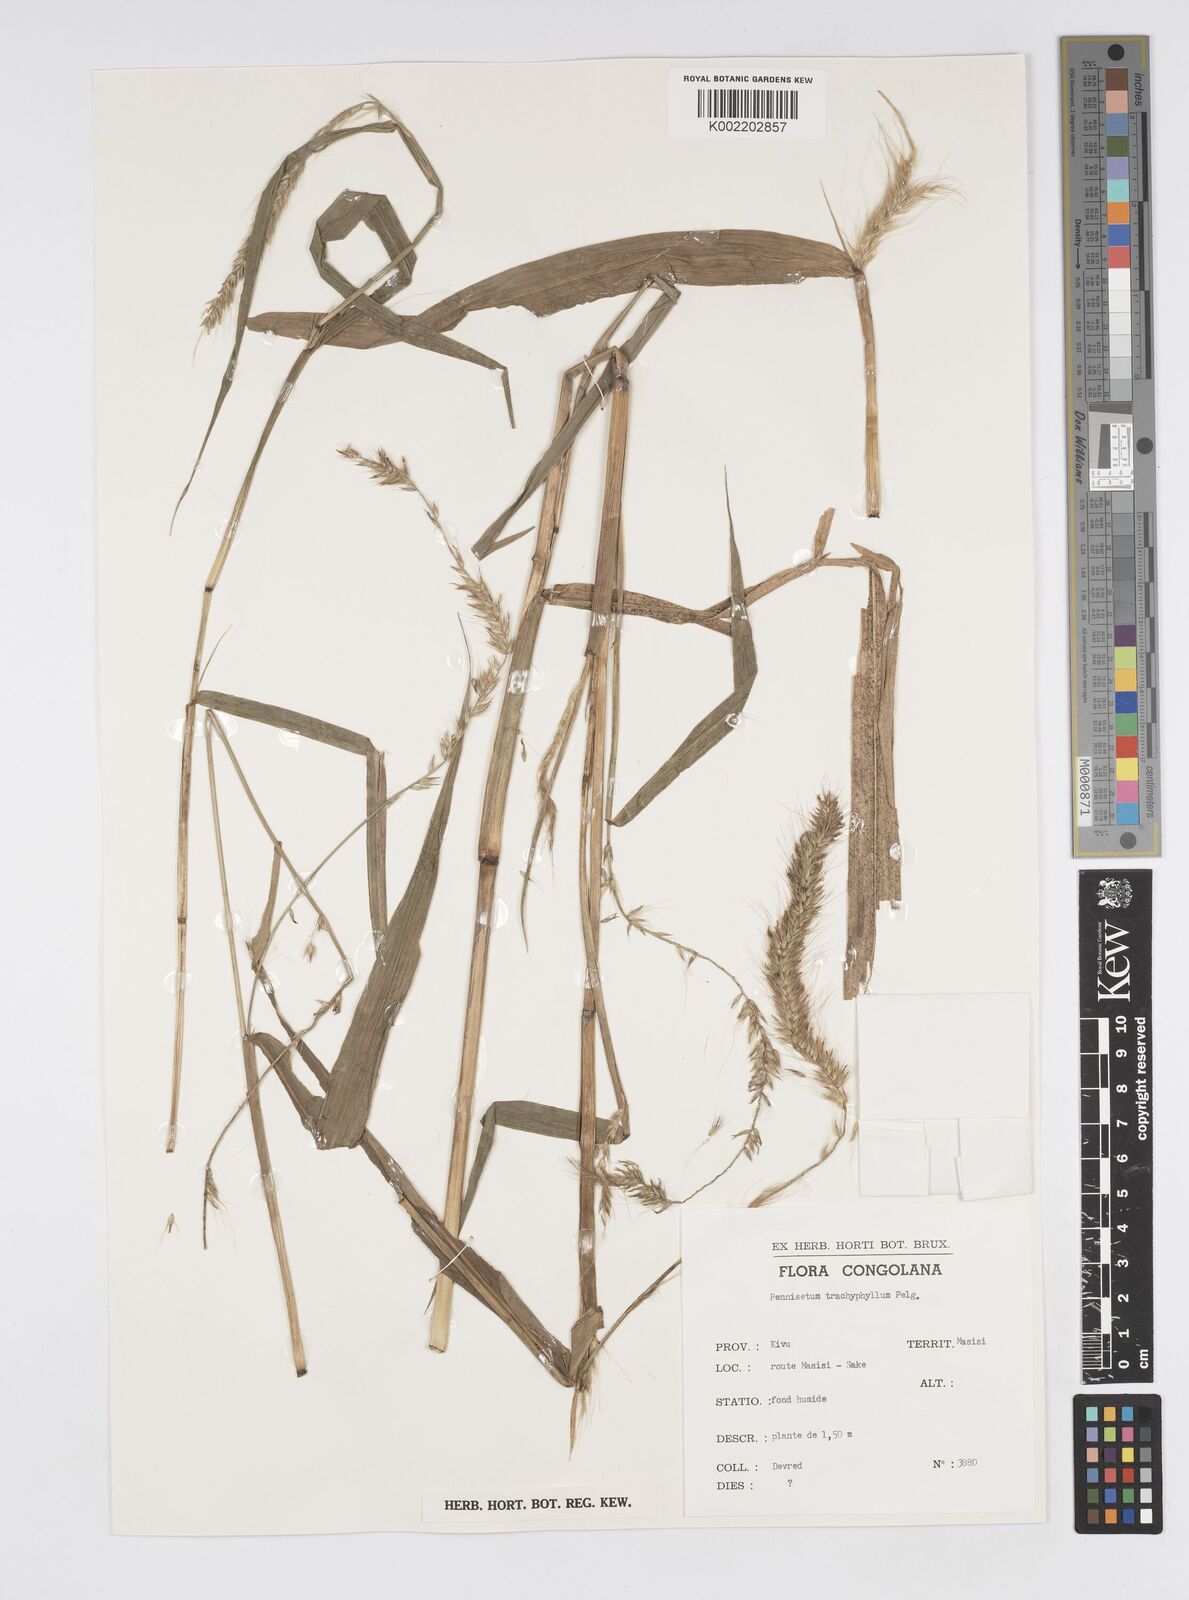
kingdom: Plantae
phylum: Tracheophyta
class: Liliopsida
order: Poales
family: Poaceae
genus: Cenchrus
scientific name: Cenchrus trachyphyllus
